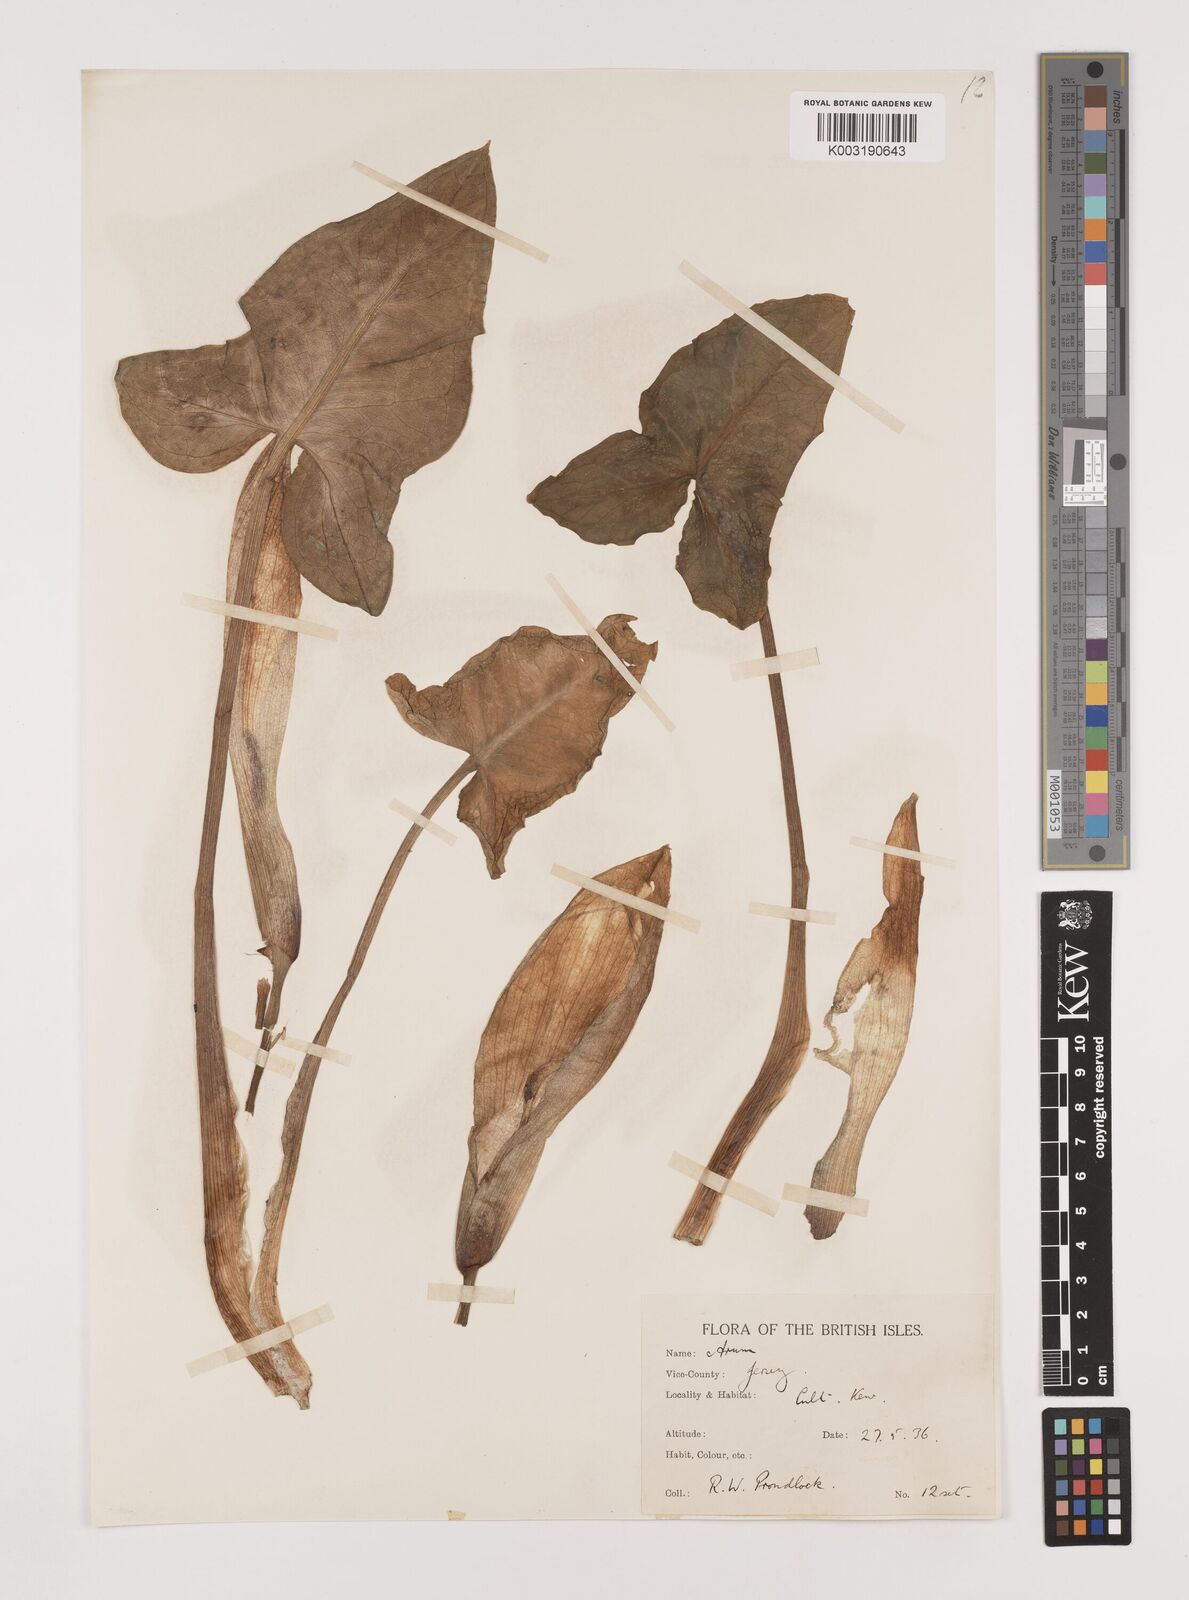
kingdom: Plantae
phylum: Tracheophyta
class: Liliopsida
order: Alismatales
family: Araceae
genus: Arum
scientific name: Arum italicum
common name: Italian lords-and-ladies
